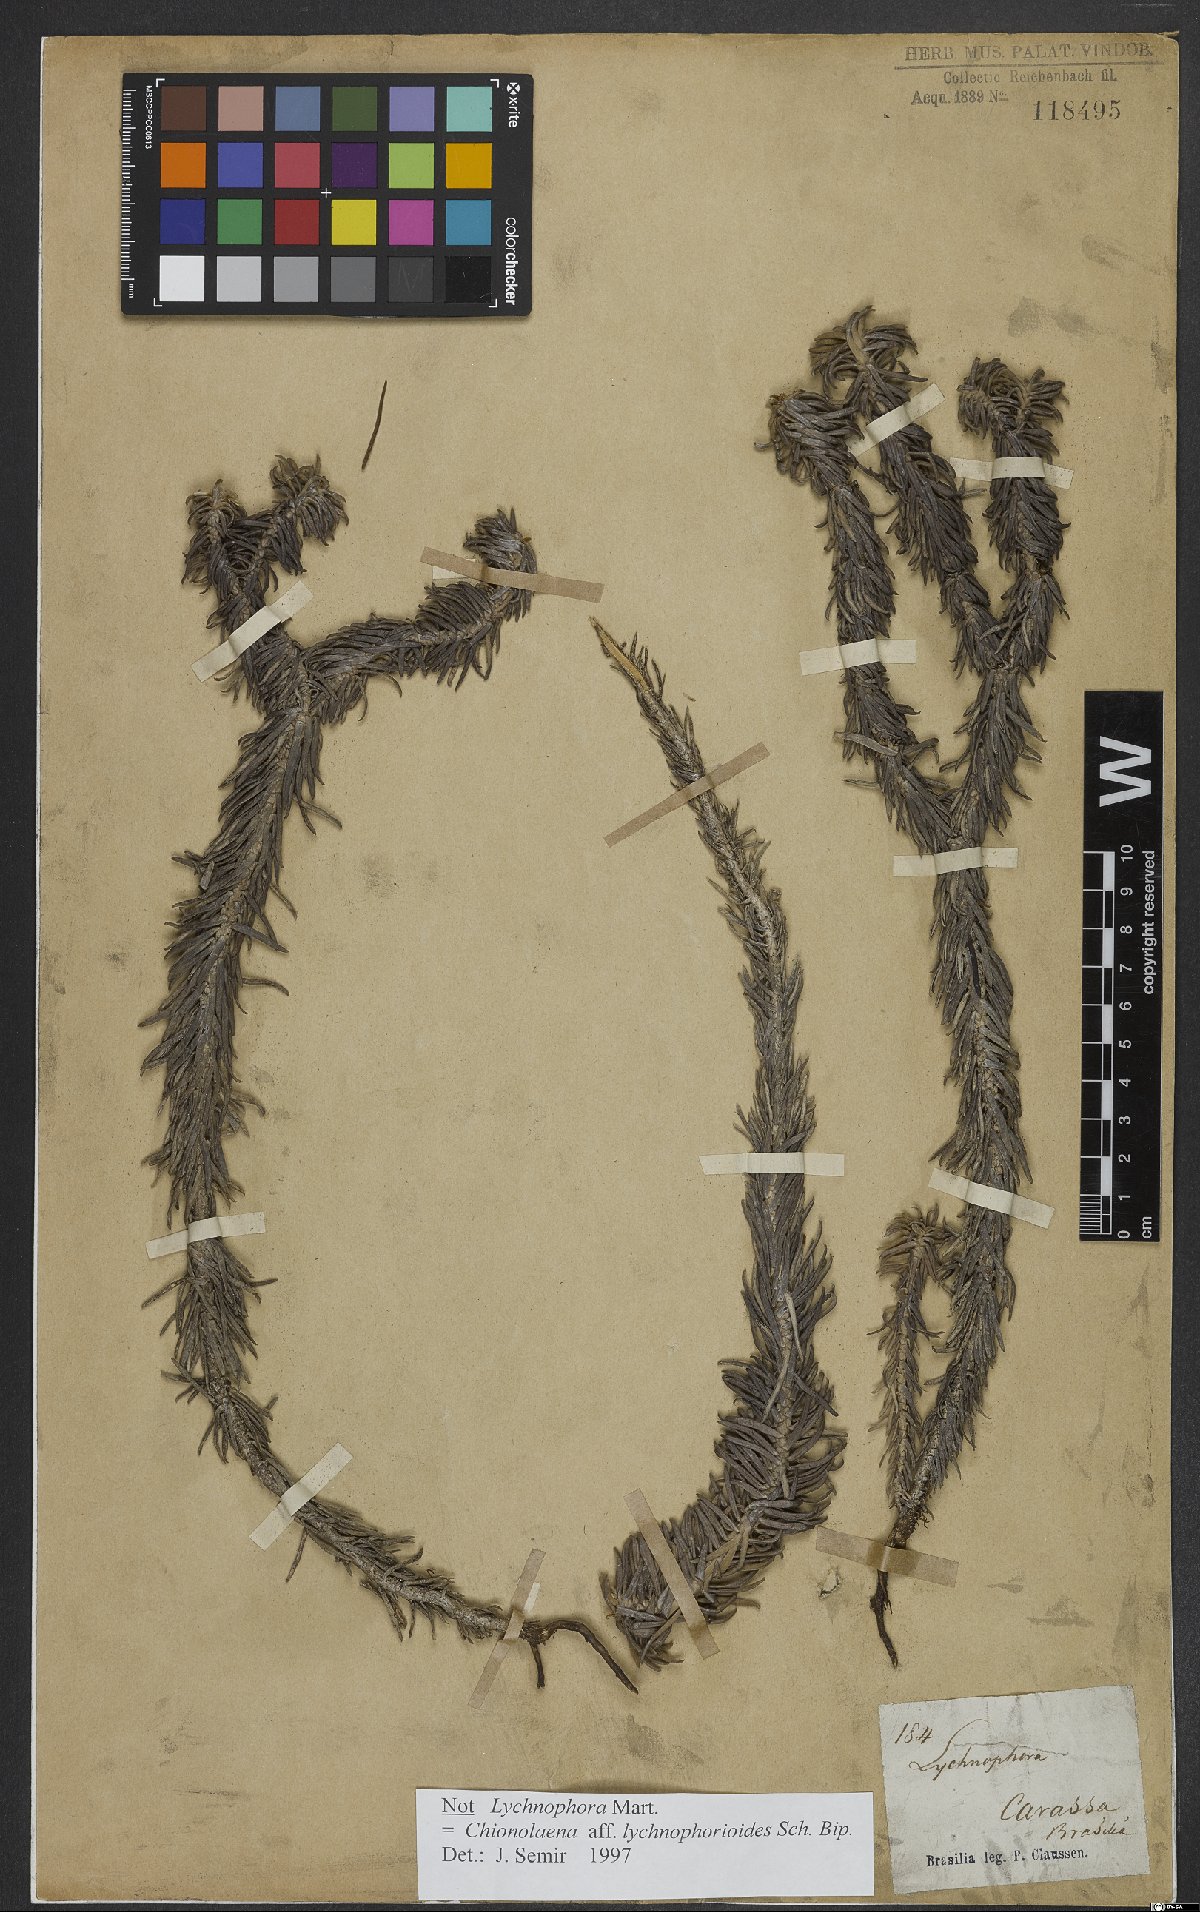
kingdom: Plantae
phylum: Tracheophyta
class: Magnoliopsida
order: Asterales
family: Asteraceae
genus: Chionolaena
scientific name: Chionolaena lychnophorioides
